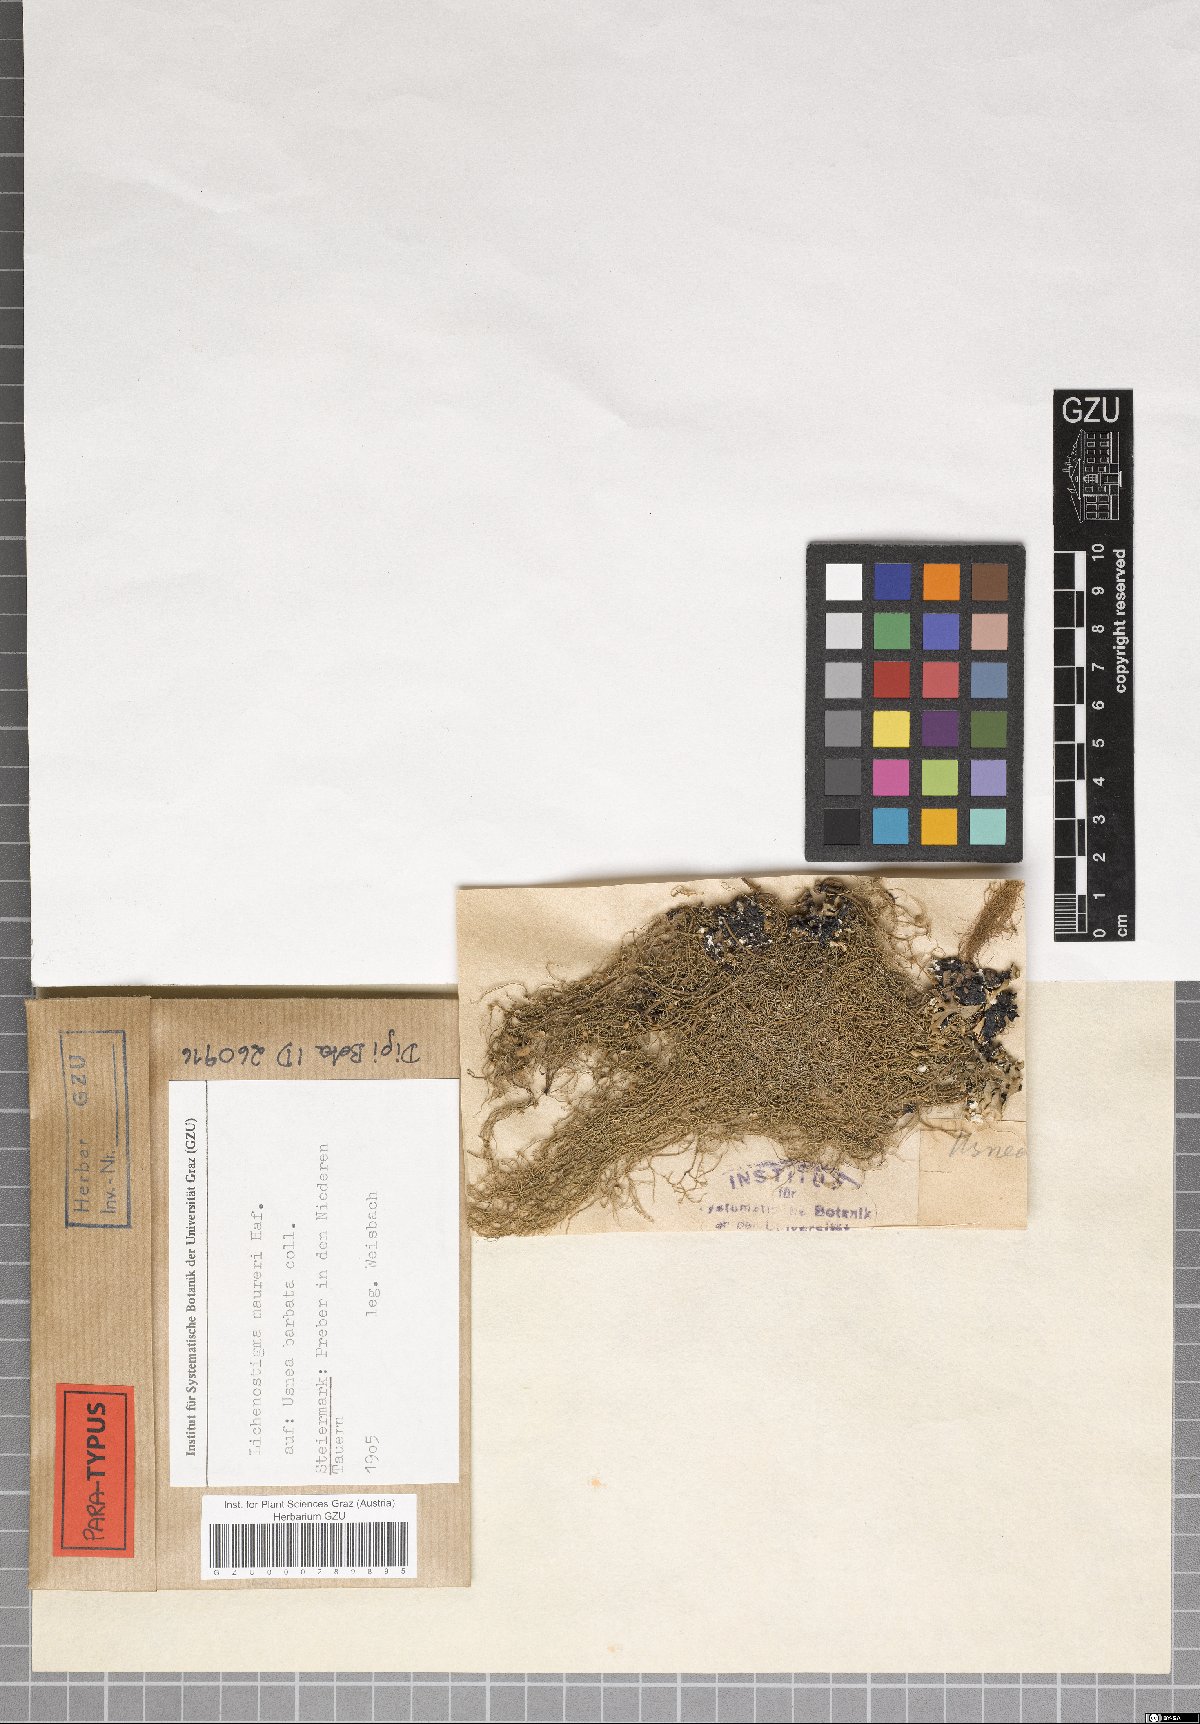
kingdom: Fungi
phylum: Ascomycota
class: Arthoniomycetes
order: Lichenostigmatales
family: Phaeococcomycetaceae
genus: Lichenostigma
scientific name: Lichenostigma maureri
